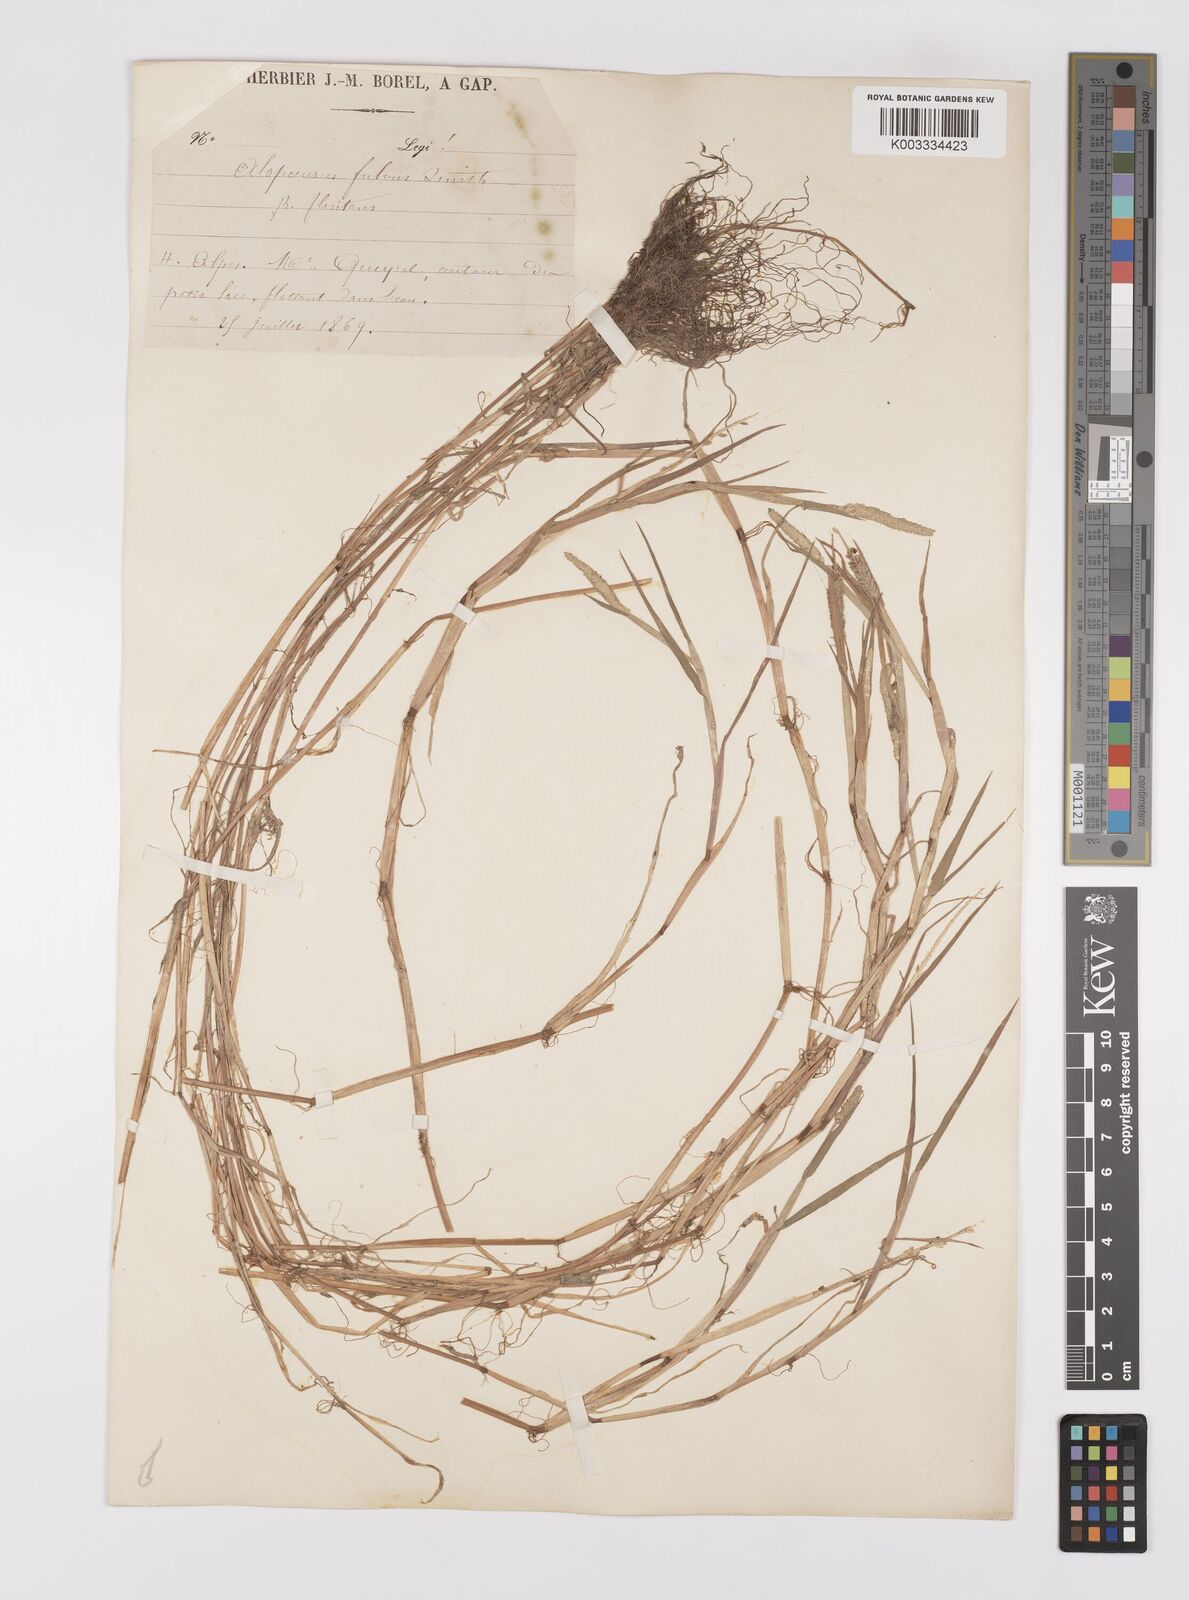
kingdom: Plantae
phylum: Tracheophyta
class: Liliopsida
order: Poales
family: Poaceae
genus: Alopecurus
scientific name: Alopecurus aequalis
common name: Orange foxtail
